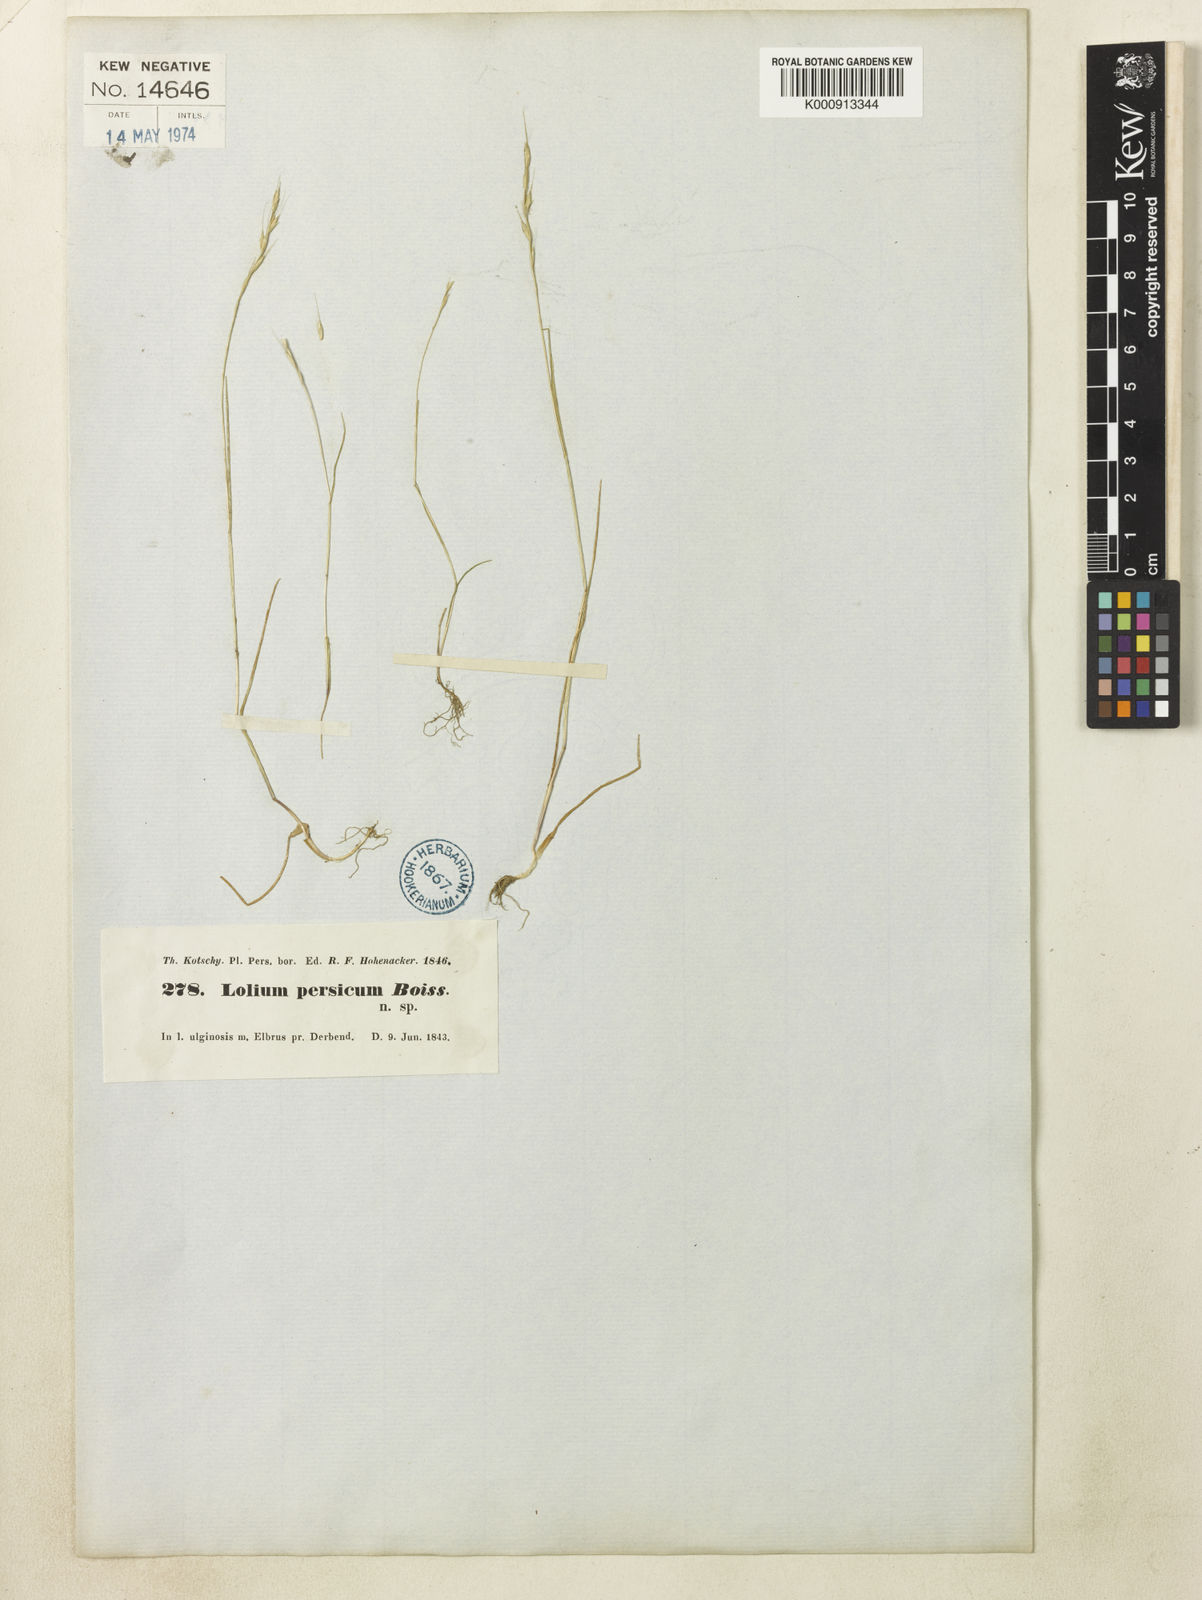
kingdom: Plantae
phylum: Tracheophyta
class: Liliopsida
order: Poales
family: Poaceae
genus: Lolium
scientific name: Lolium persicum
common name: Persian ryegrass
